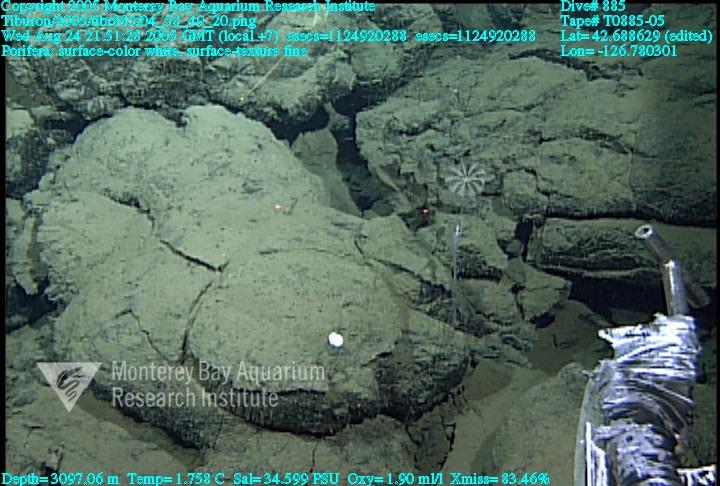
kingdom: Animalia
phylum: Porifera
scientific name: Porifera
